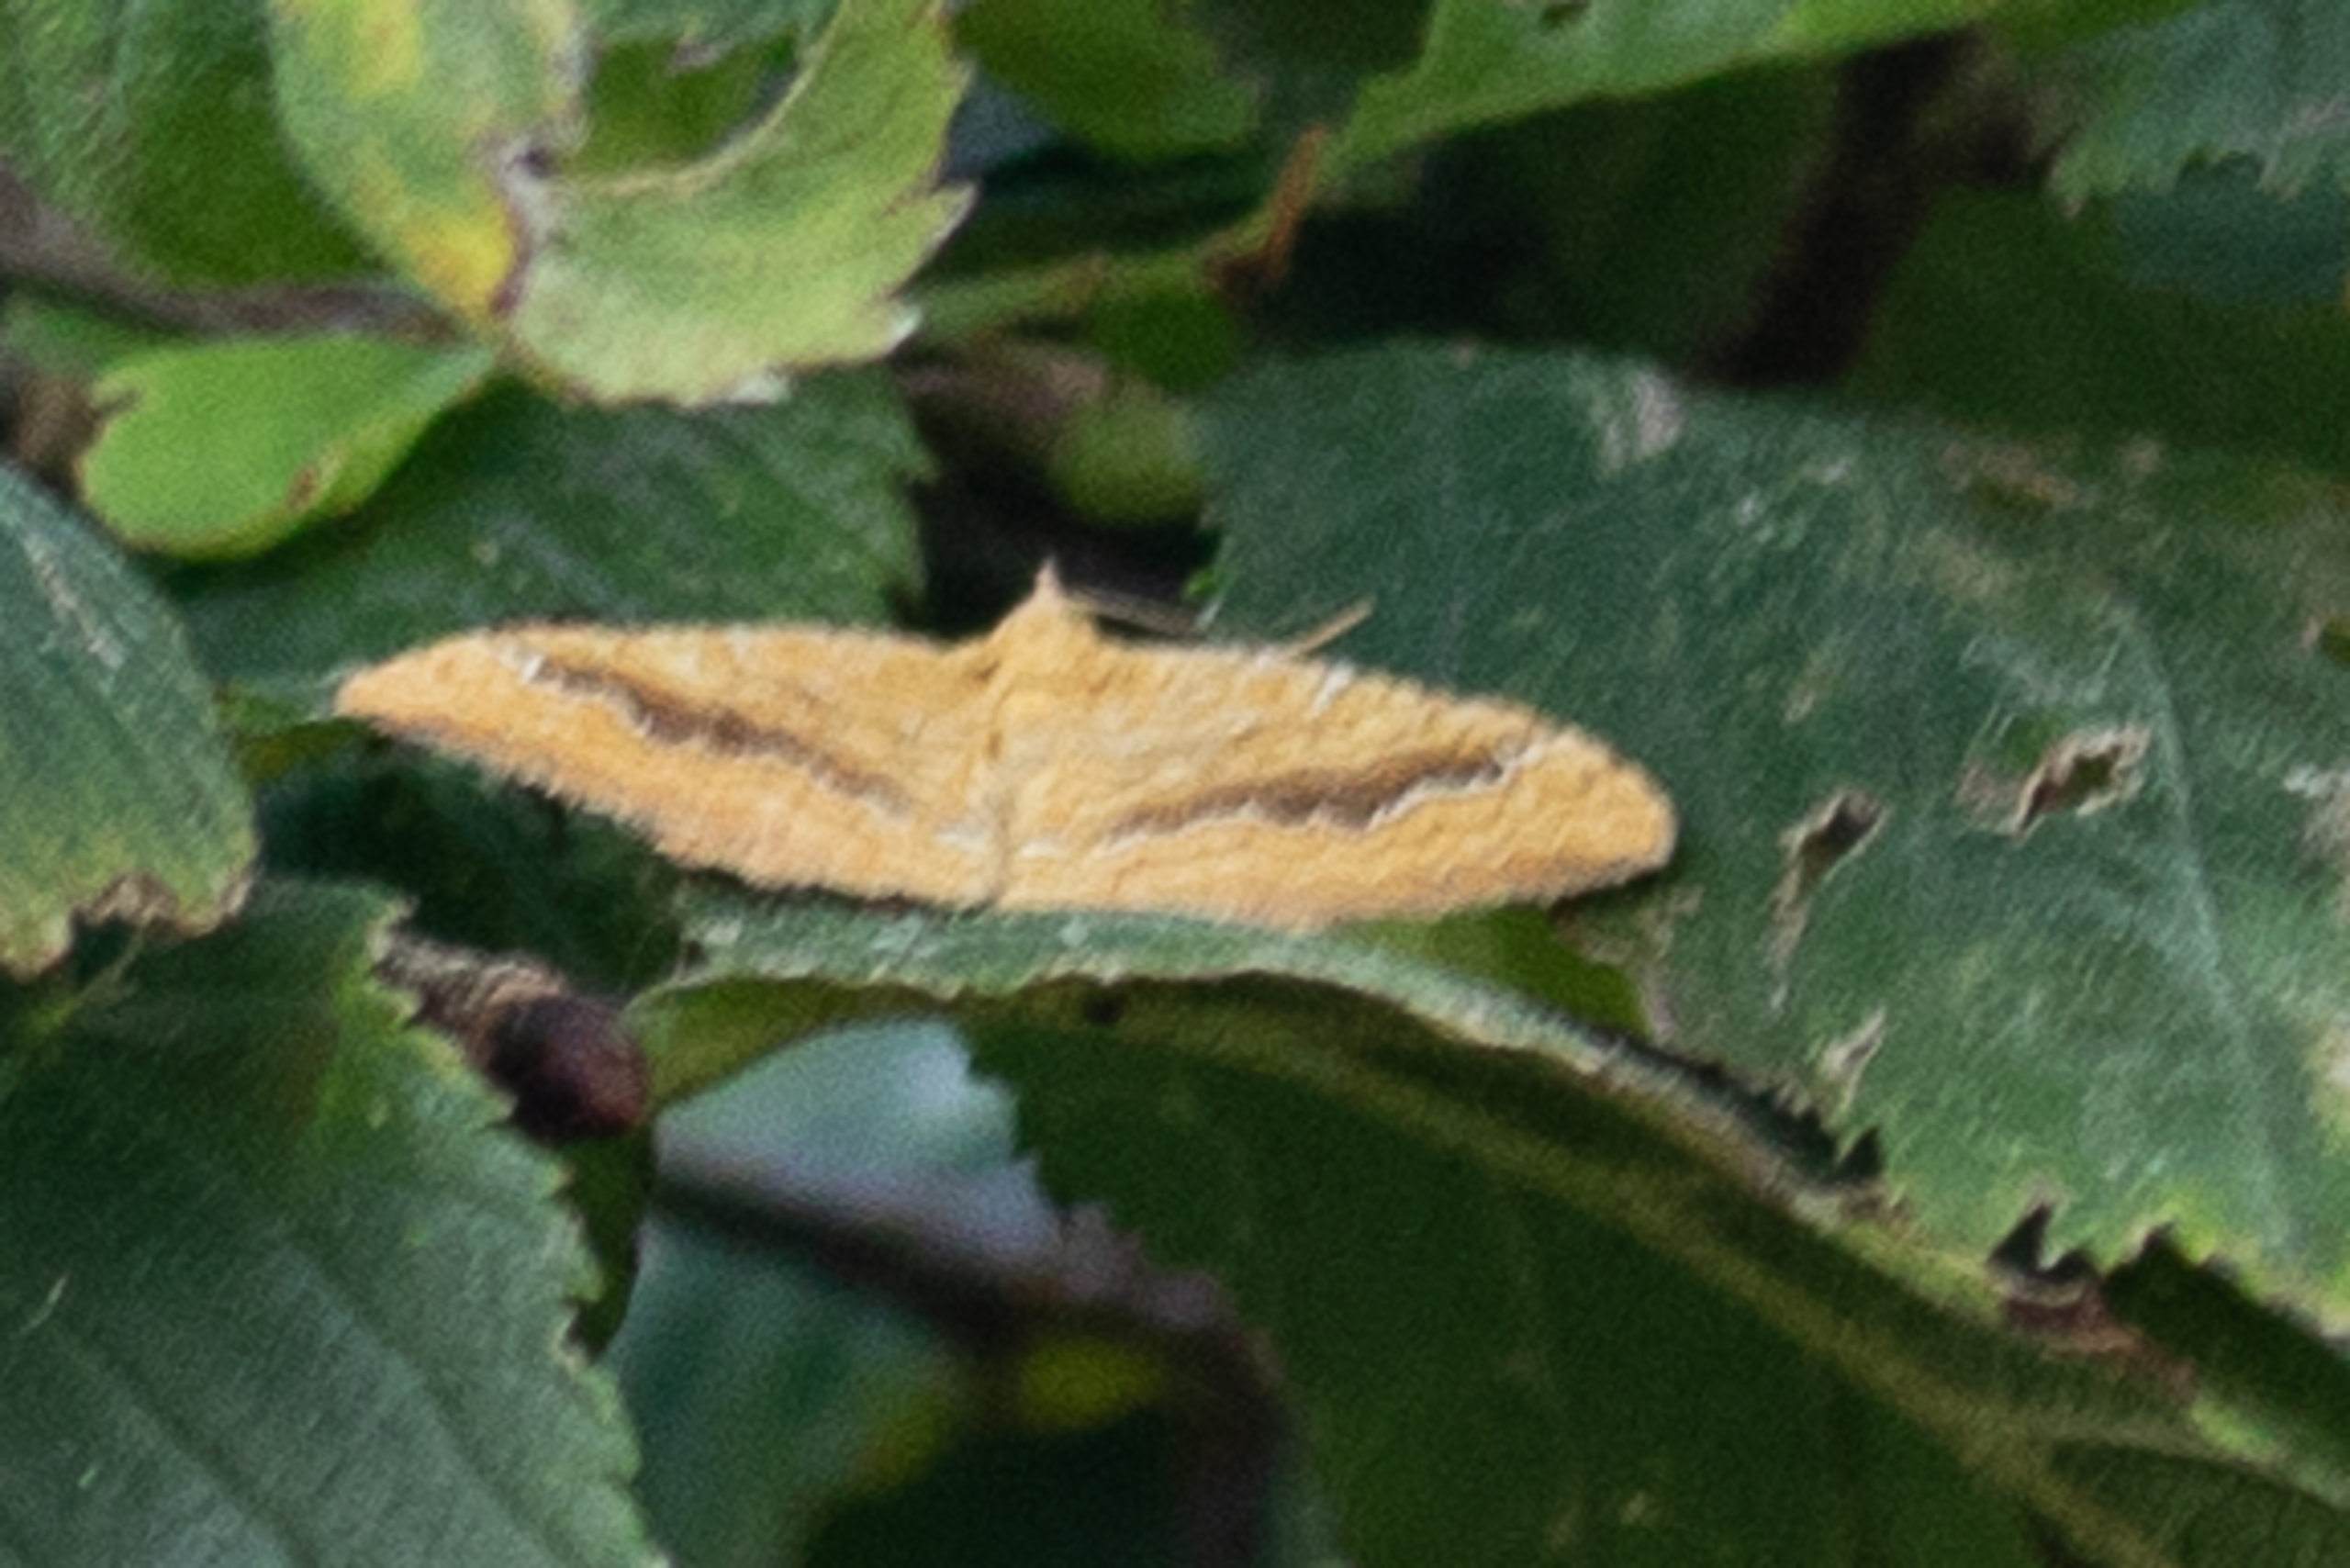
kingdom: Animalia
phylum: Arthropoda
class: Insecta
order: Lepidoptera
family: Geometridae
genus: Camptogramma
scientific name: Camptogramma bilineata
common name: Okkergul bladmåler
